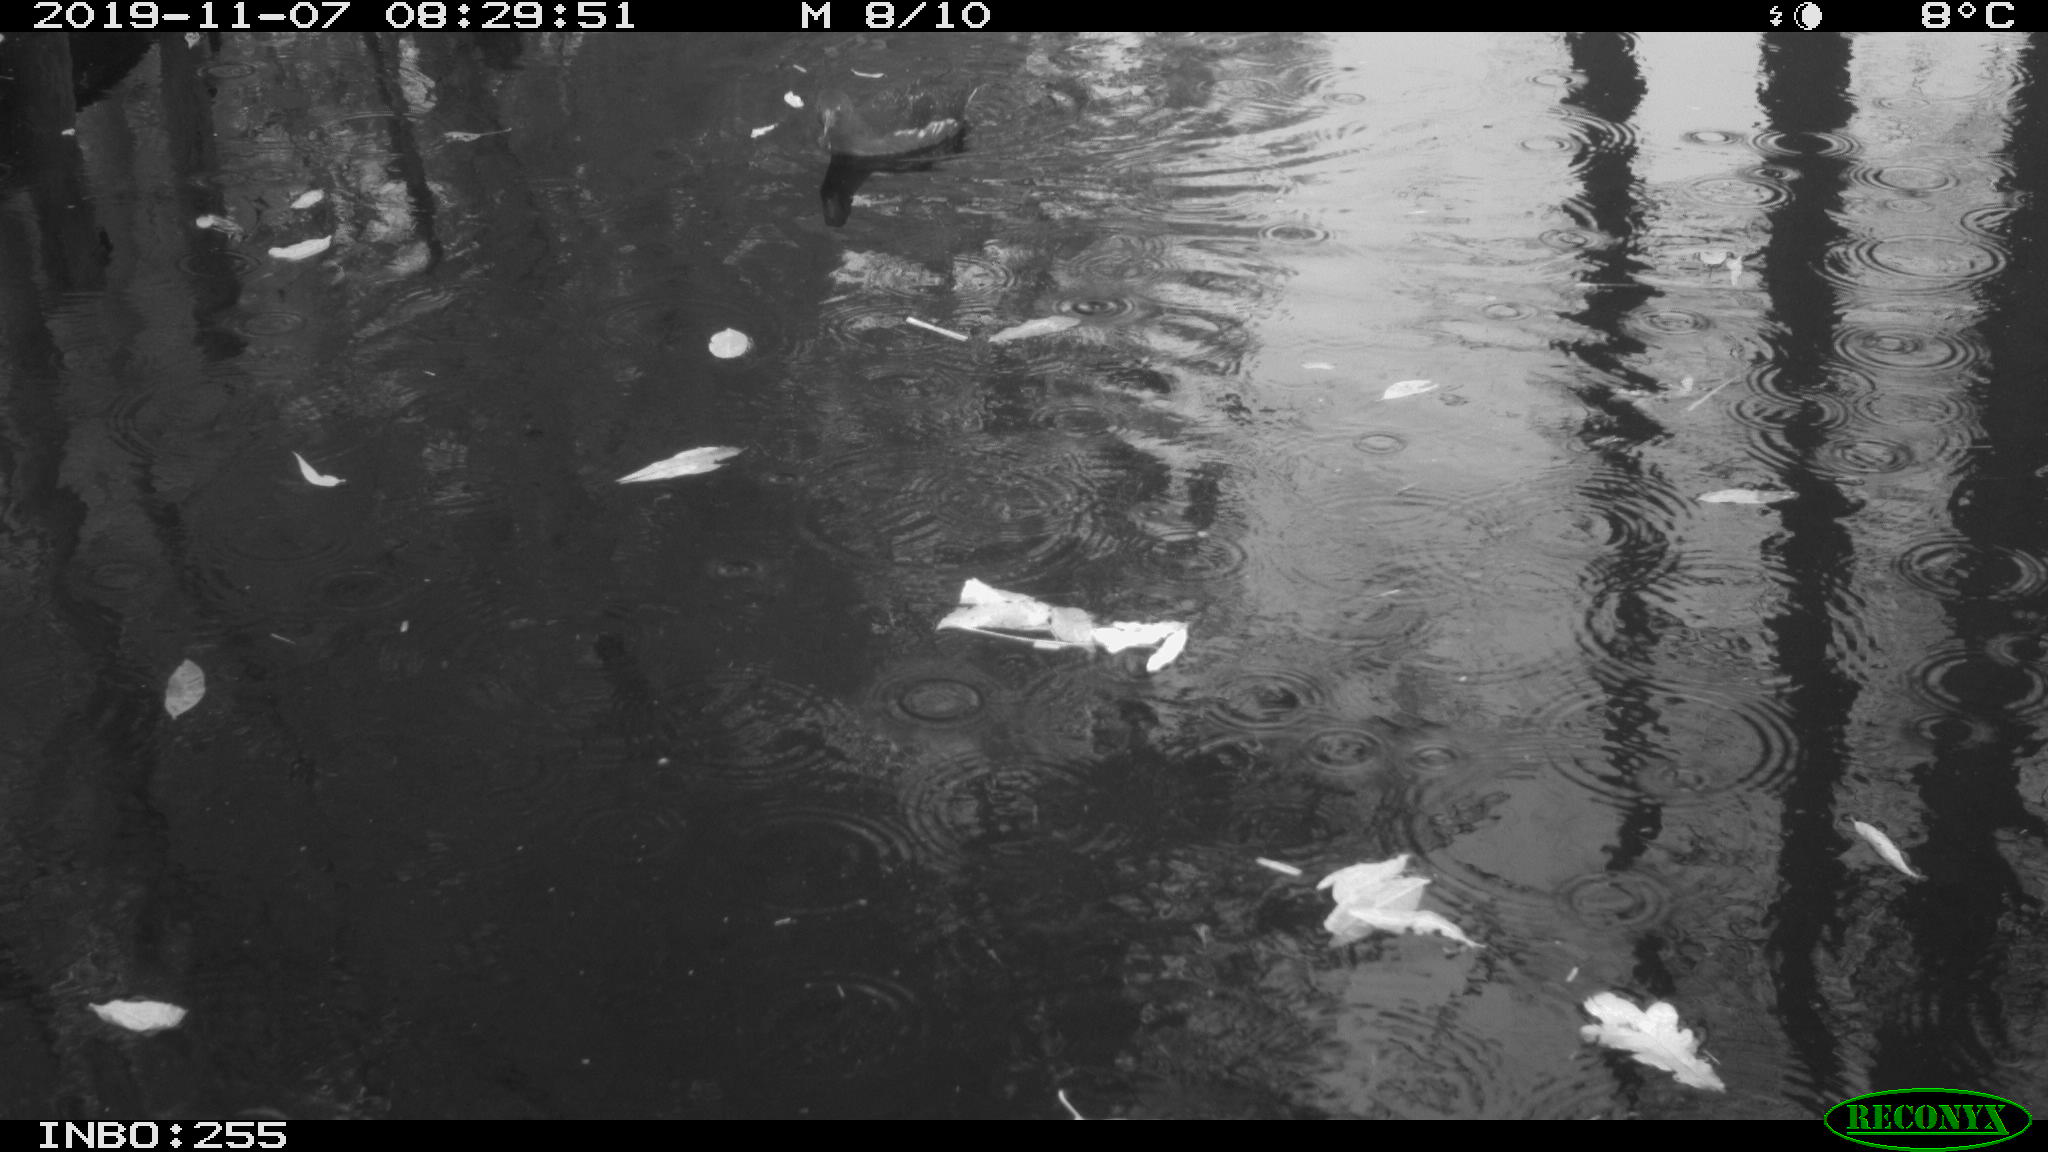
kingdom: Animalia
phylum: Chordata
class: Aves
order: Gruiformes
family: Rallidae
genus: Gallinula
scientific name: Gallinula chloropus
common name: Common moorhen
